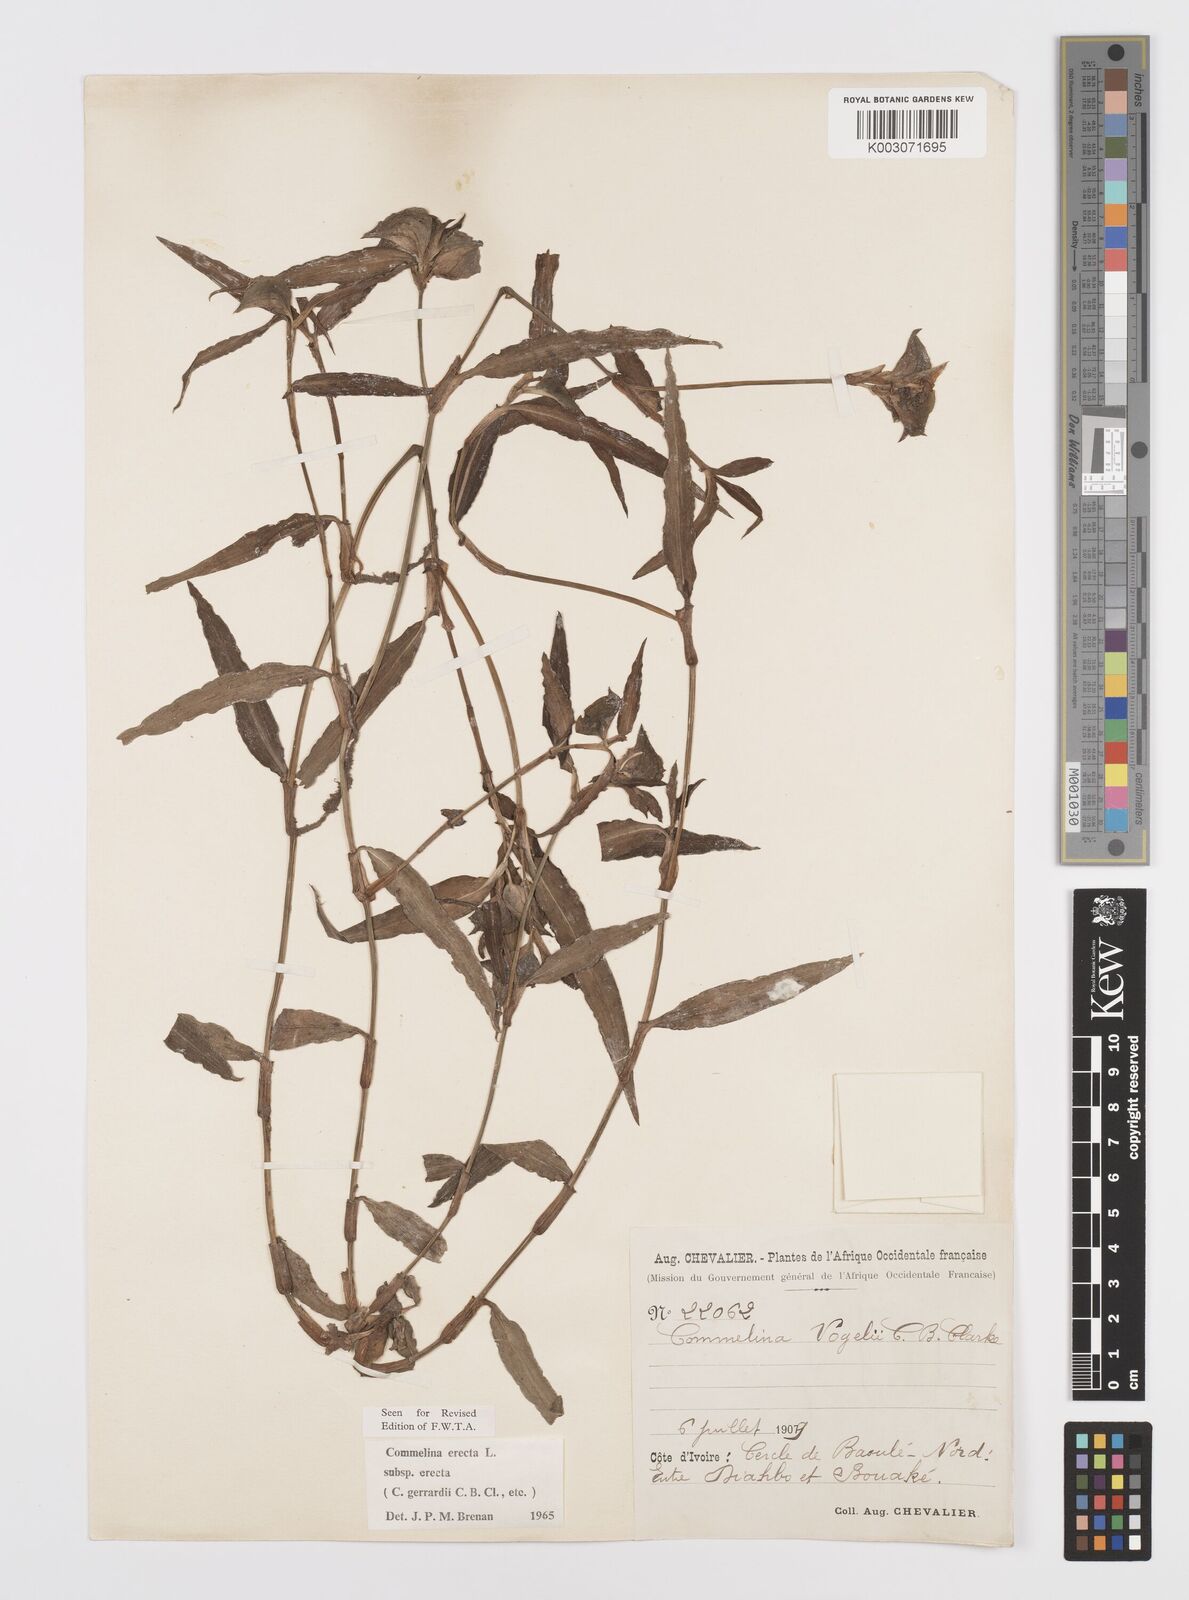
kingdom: Plantae
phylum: Tracheophyta
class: Liliopsida
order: Commelinales
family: Commelinaceae
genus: Commelina
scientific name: Commelina erecta
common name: Blousel blommetjie
